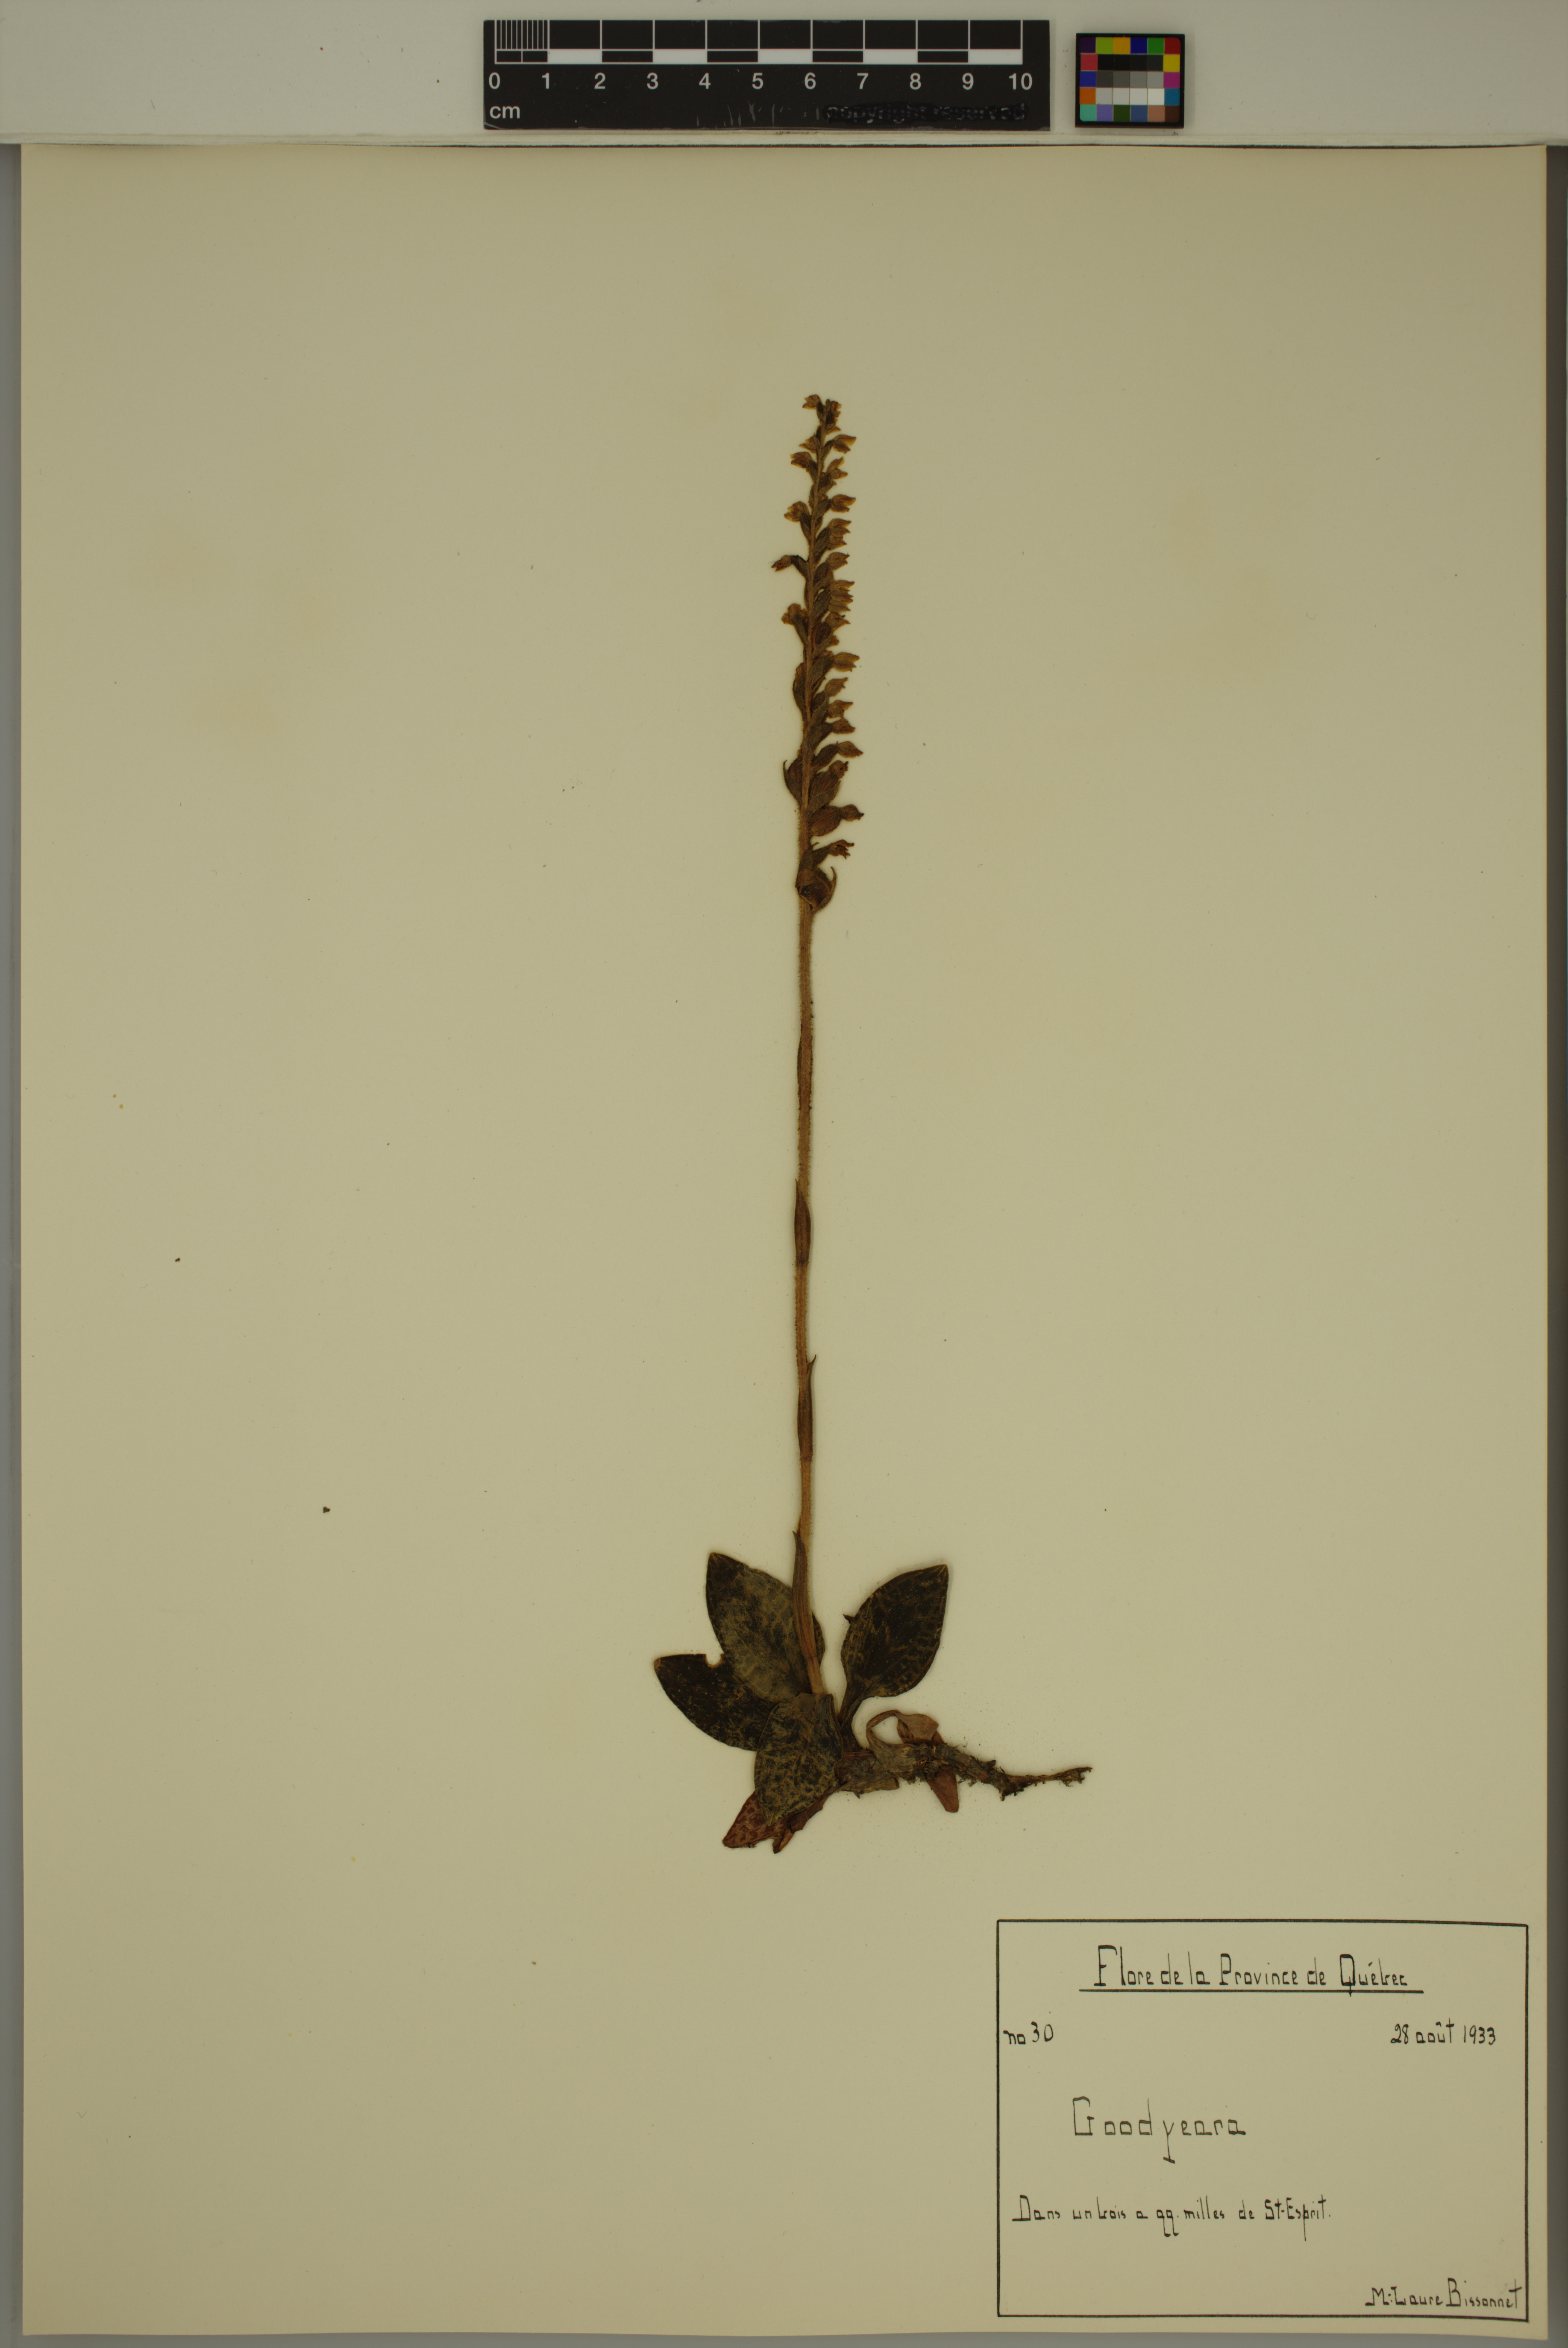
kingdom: Plantae
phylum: Tracheophyta
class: Liliopsida
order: Asparagales
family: Orchidaceae
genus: Goodyera
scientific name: Goodyera
